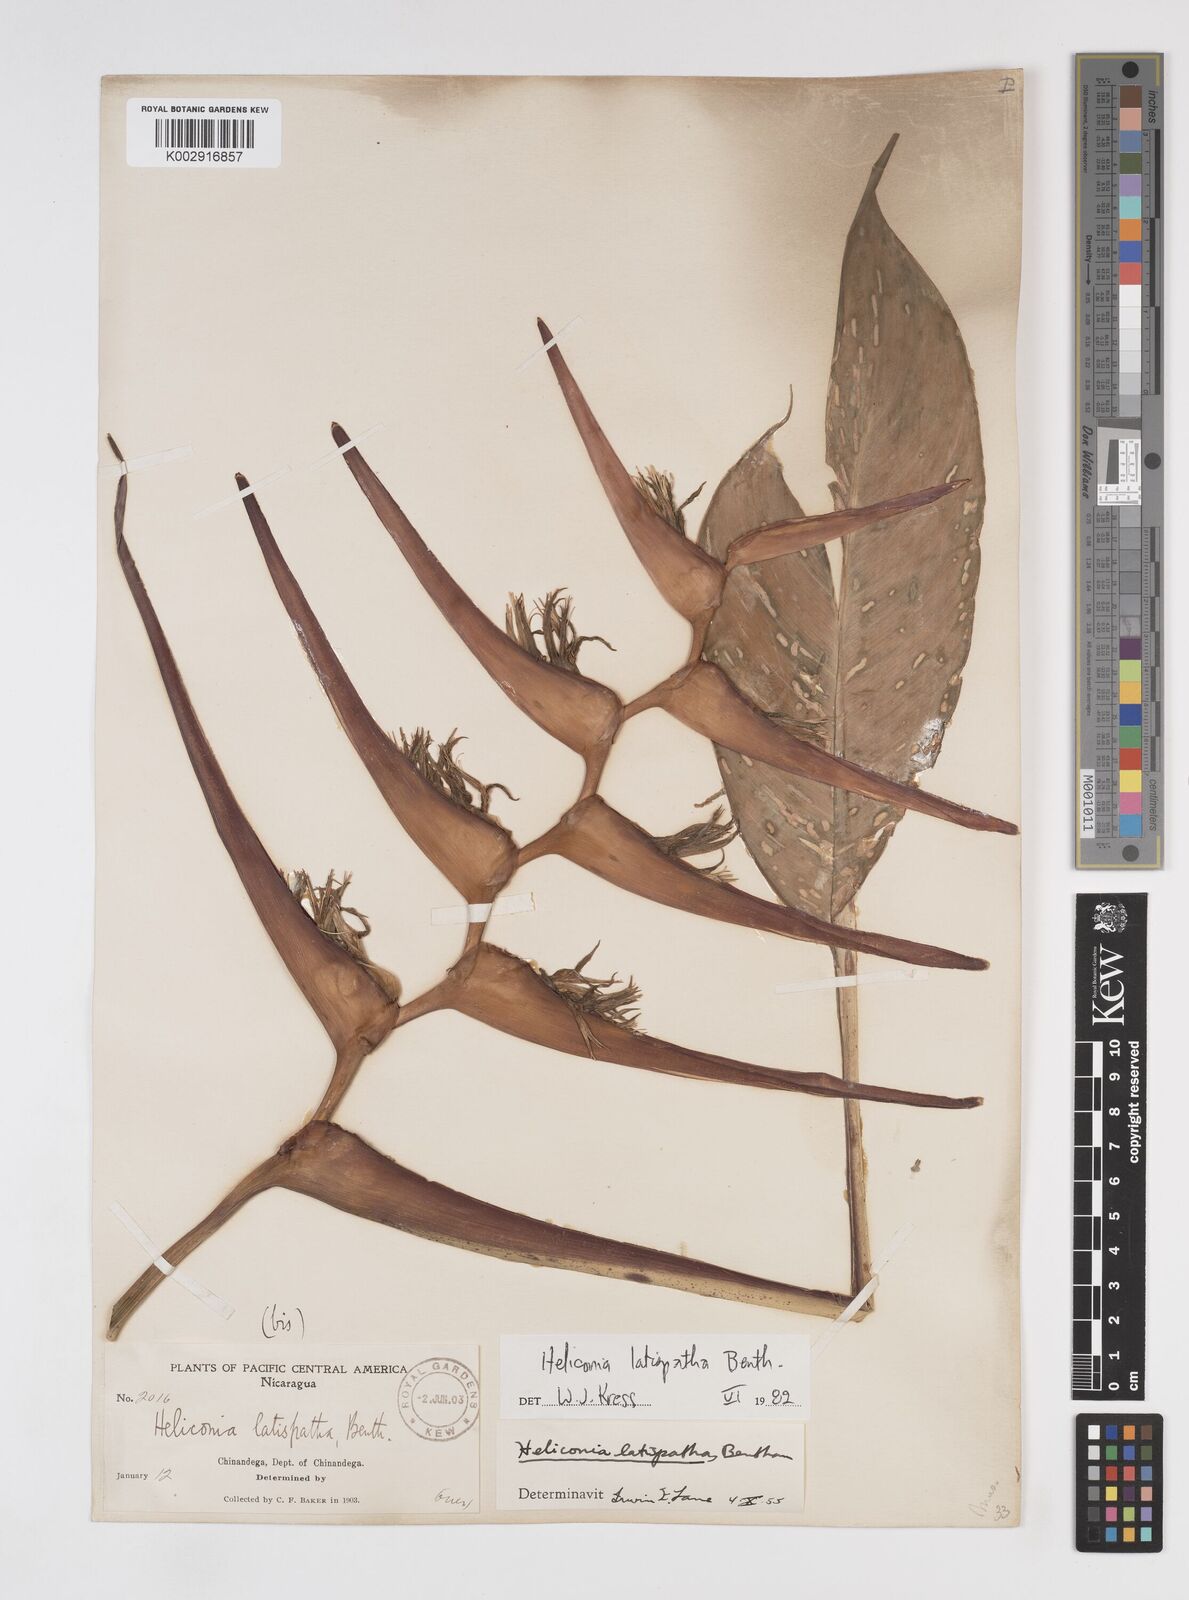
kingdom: Plantae
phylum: Tracheophyta
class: Liliopsida
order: Zingiberales
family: Heliconiaceae
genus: Heliconia
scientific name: Heliconia latispatha
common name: Expanded lobsterclaw
